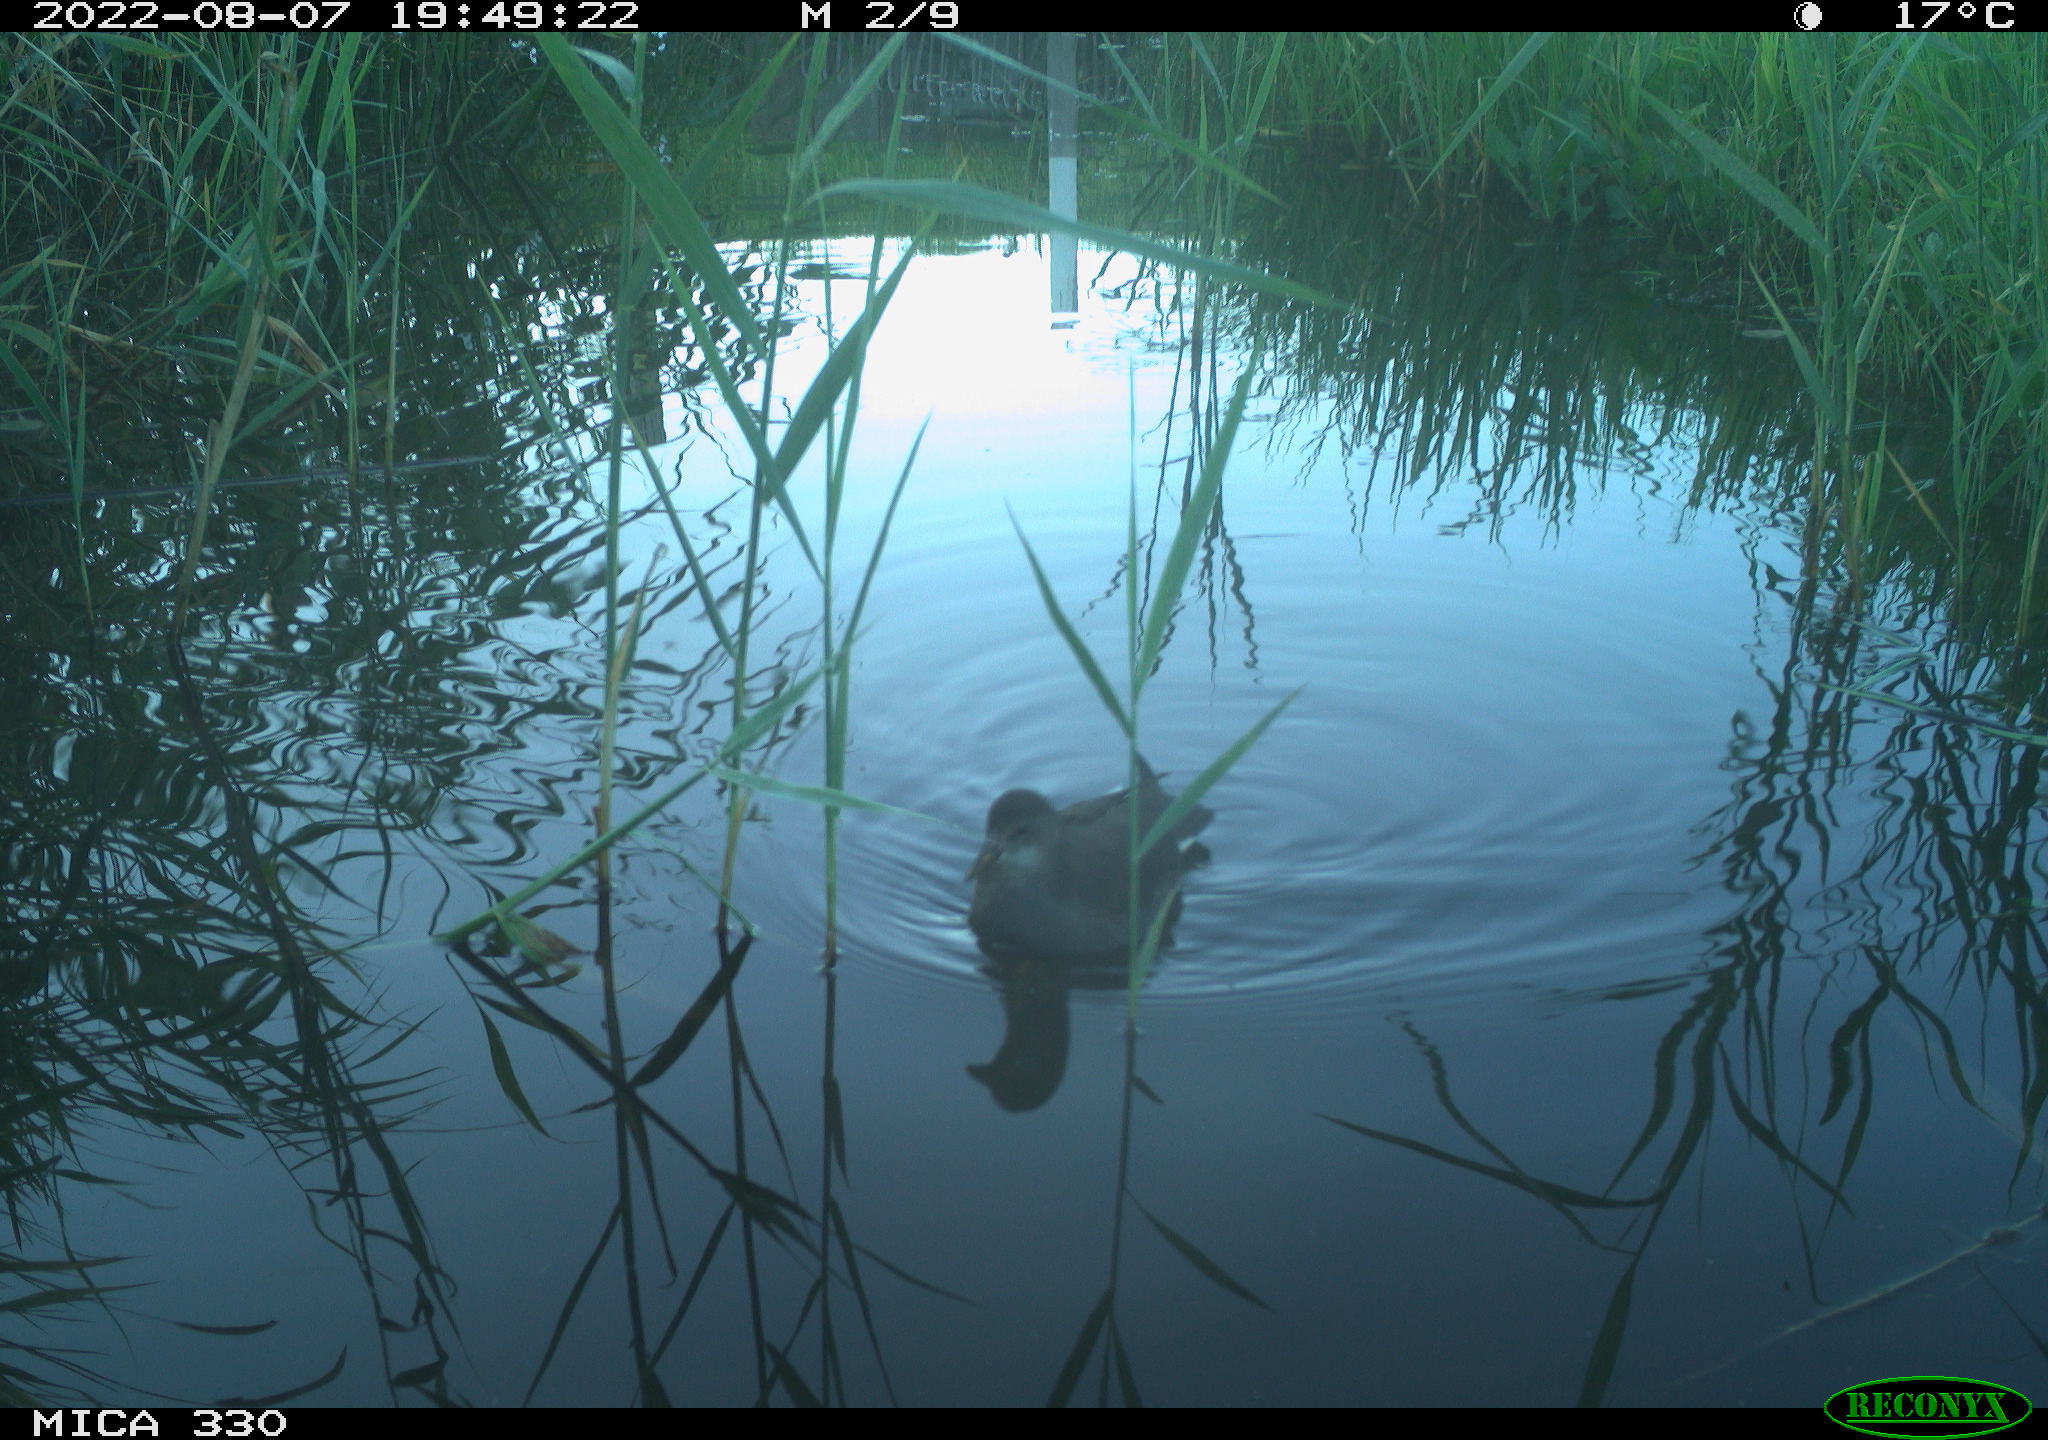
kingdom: Animalia
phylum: Chordata
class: Aves
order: Gruiformes
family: Rallidae
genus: Gallinula
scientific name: Gallinula chloropus
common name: Common moorhen
